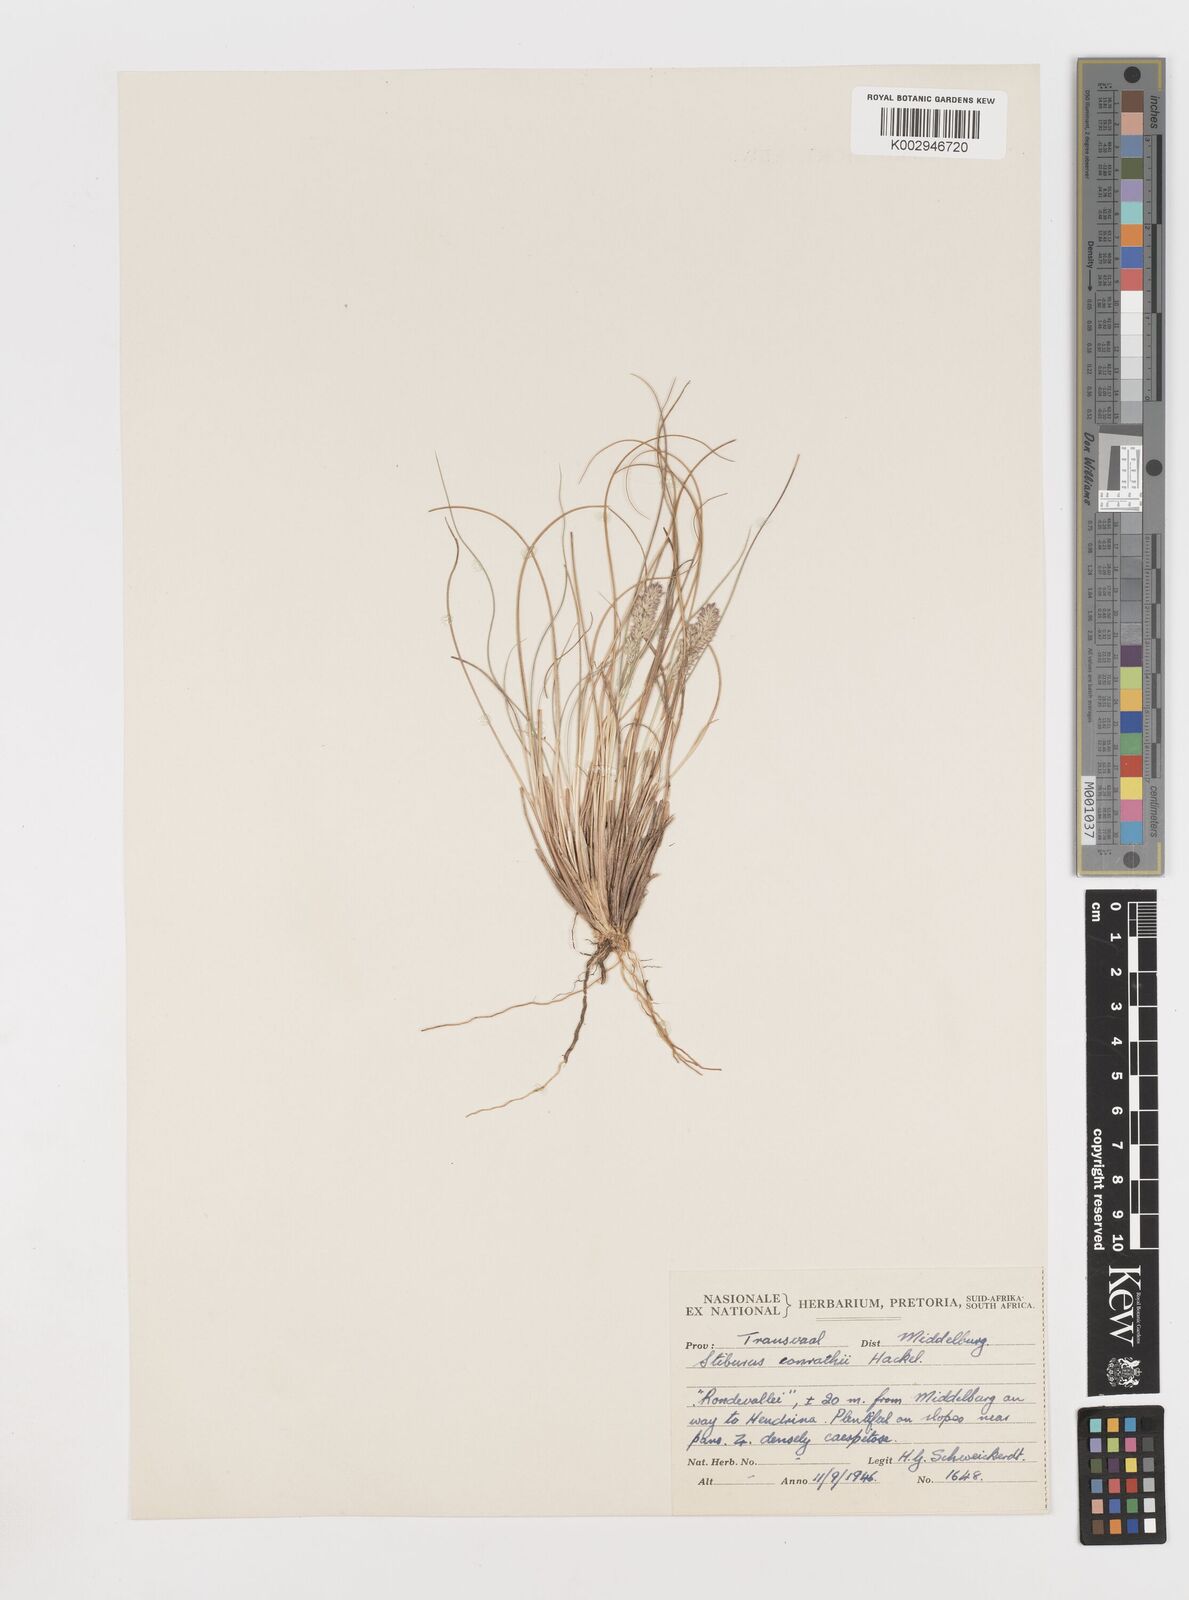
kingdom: Plantae
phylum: Tracheophyta
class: Liliopsida
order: Poales
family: Poaceae
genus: Stiburus
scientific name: Stiburus conrathii
